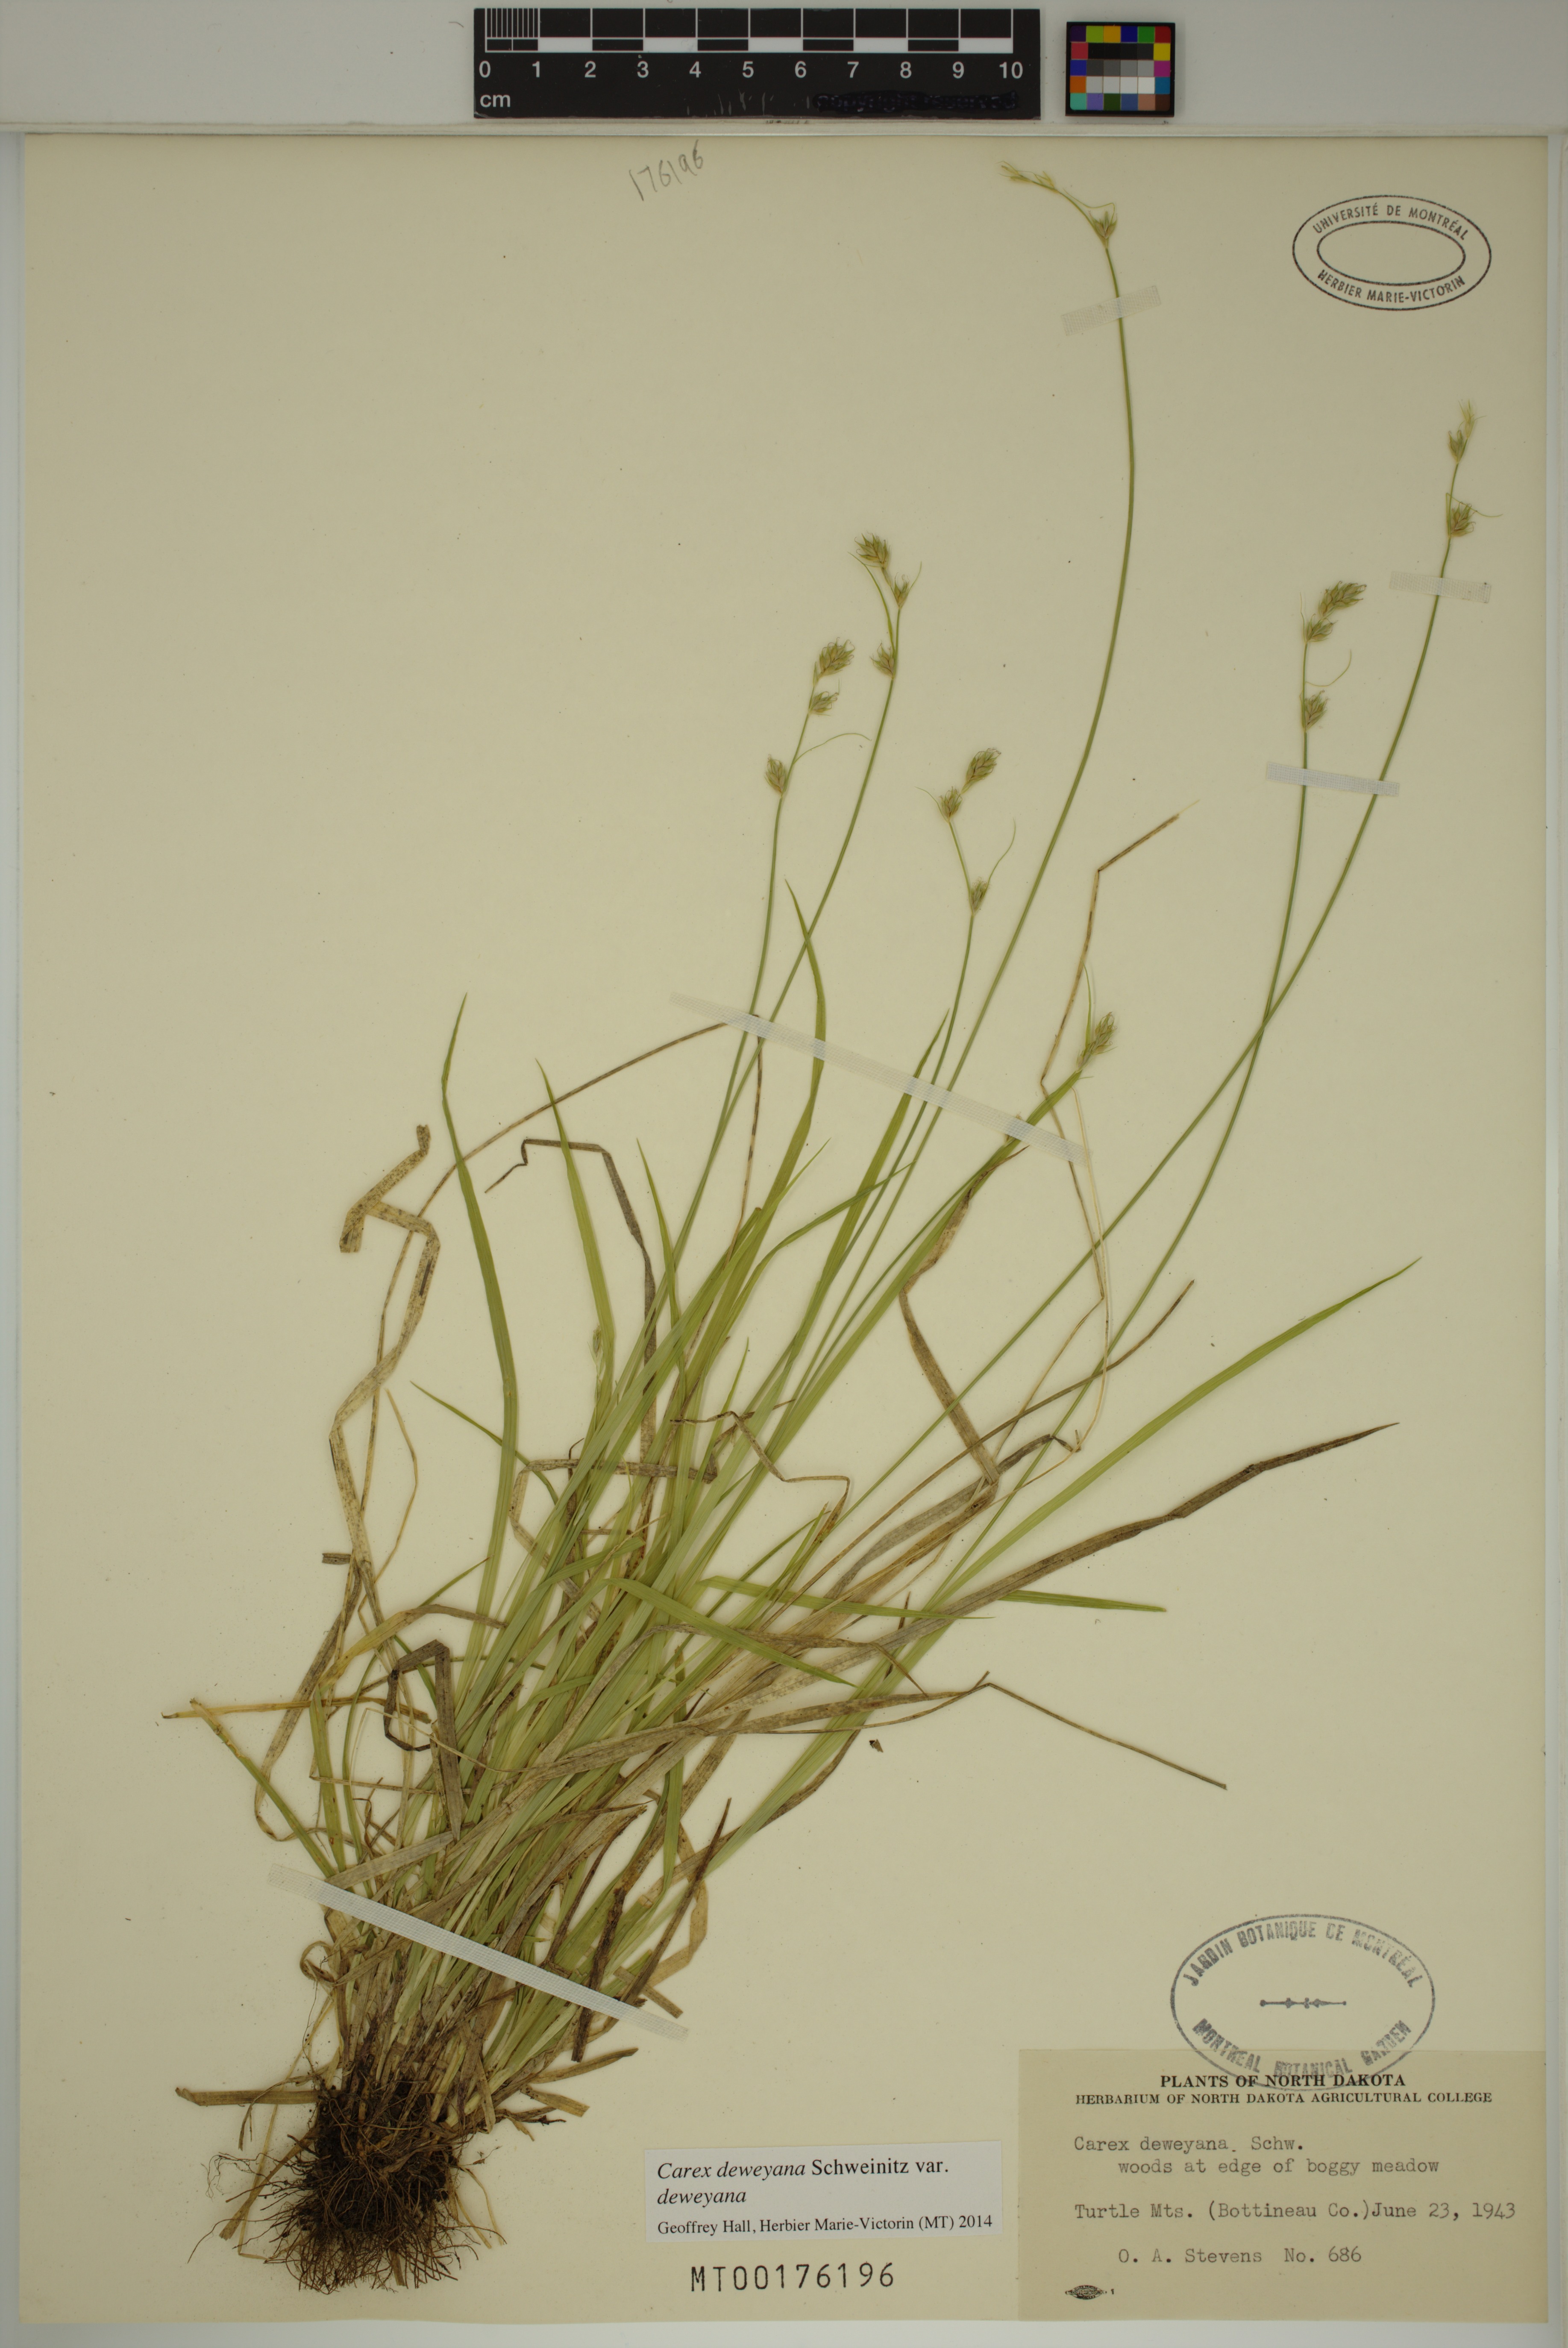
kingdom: Plantae
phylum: Tracheophyta
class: Liliopsida
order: Poales
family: Cyperaceae
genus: Carex
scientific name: Carex deweyana
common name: Dewey's sedge
